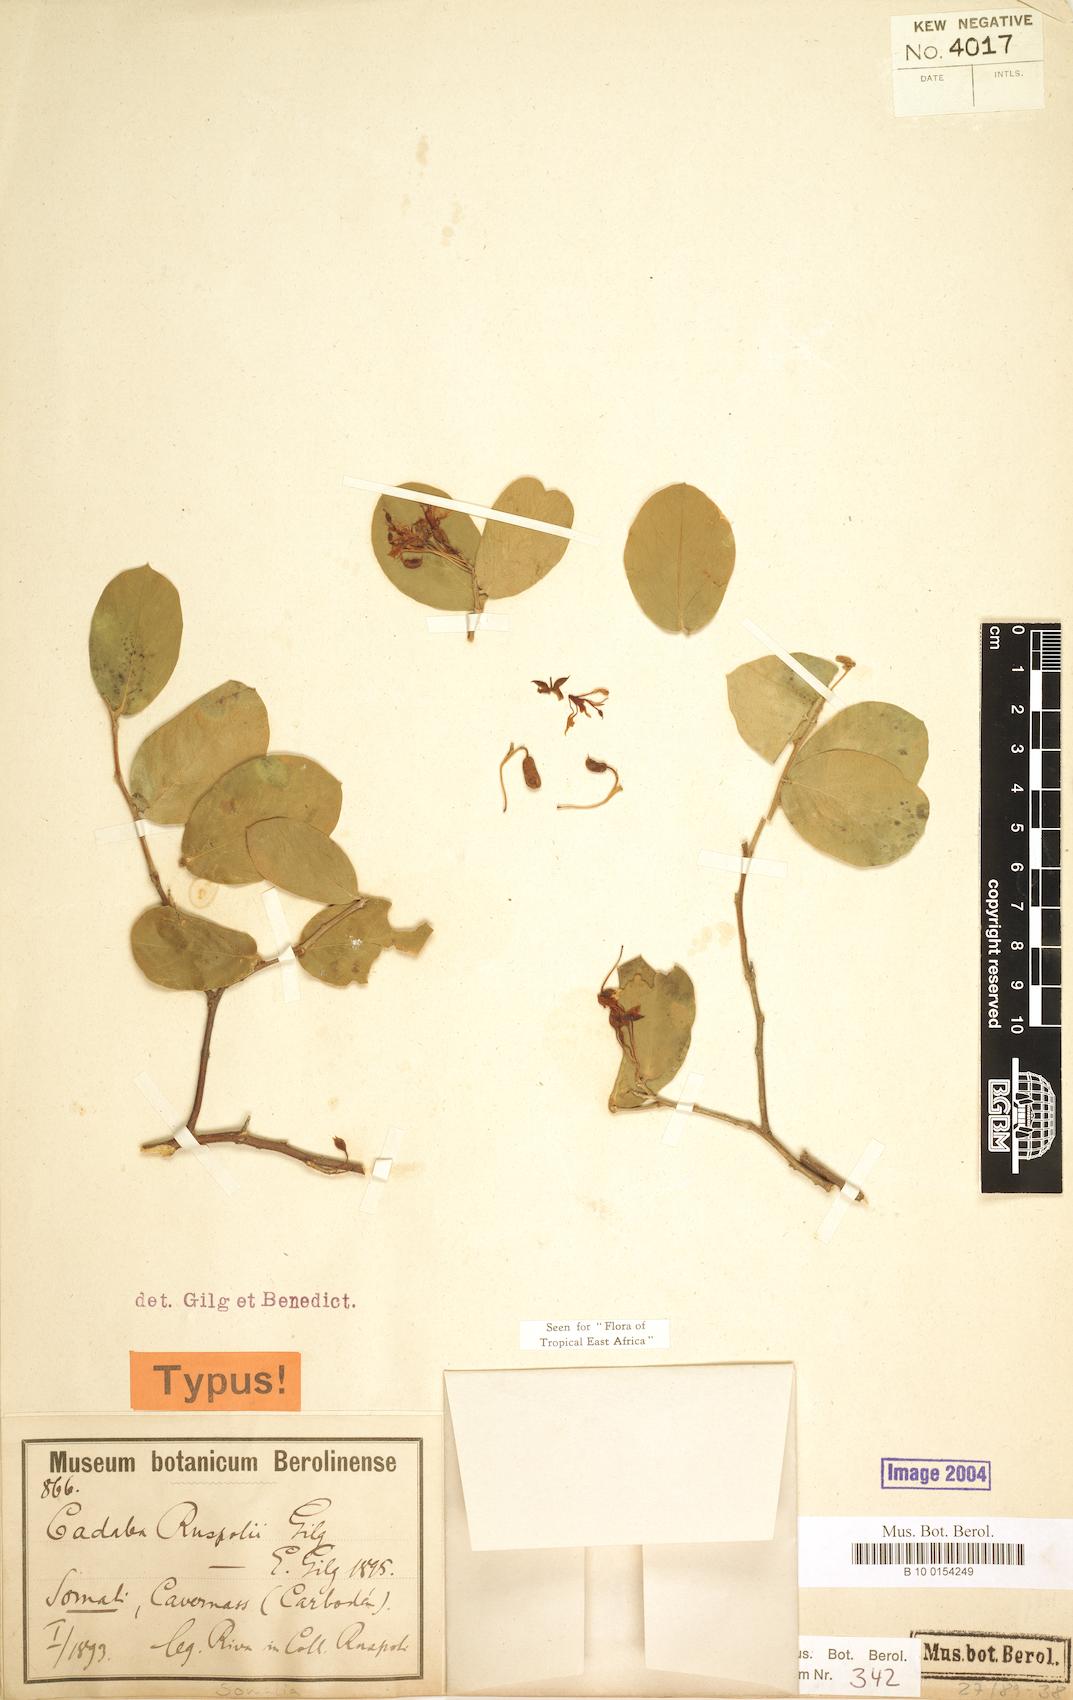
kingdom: Plantae
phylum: Tracheophyta
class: Magnoliopsida
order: Brassicales
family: Capparaceae
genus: Cadaba
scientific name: Cadaba ruspolii
